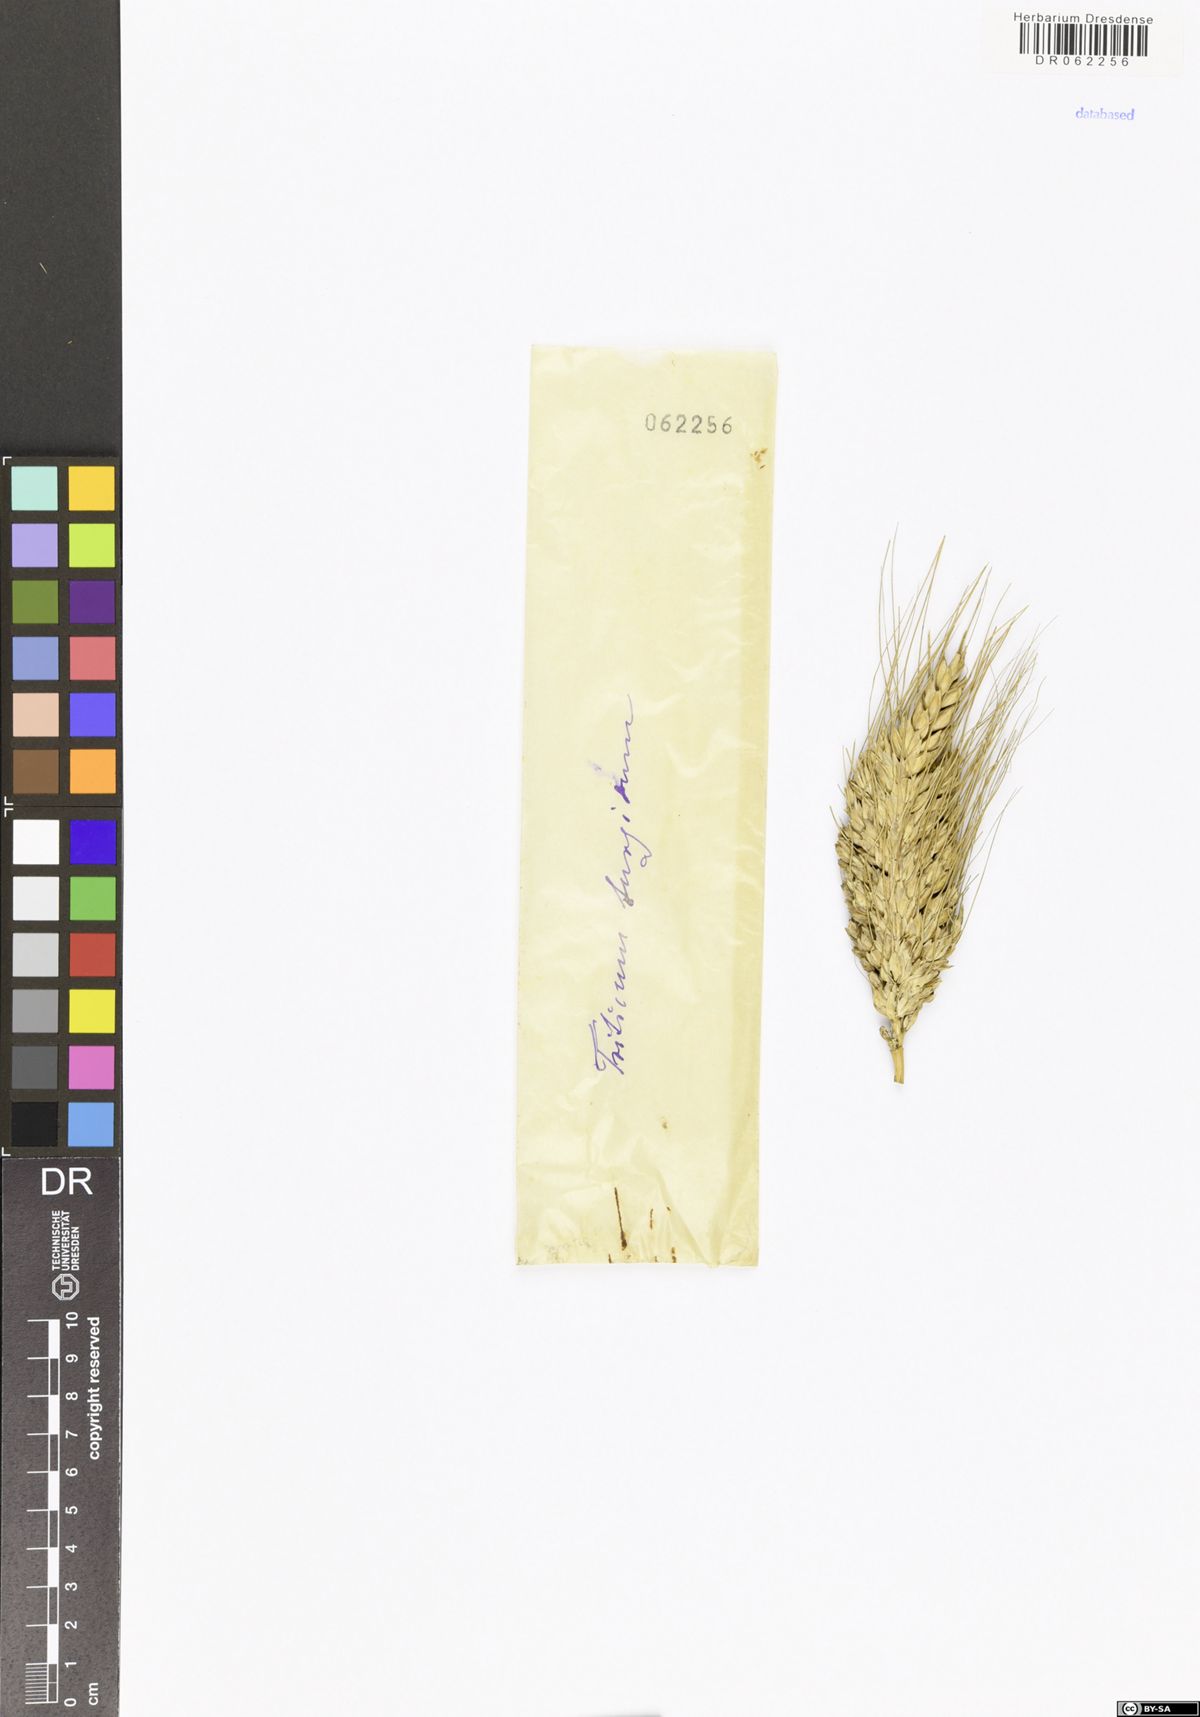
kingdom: Plantae
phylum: Tracheophyta
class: Liliopsida
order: Poales
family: Poaceae
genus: Triticum
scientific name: Triticum turgidum
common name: Rivet wheat
